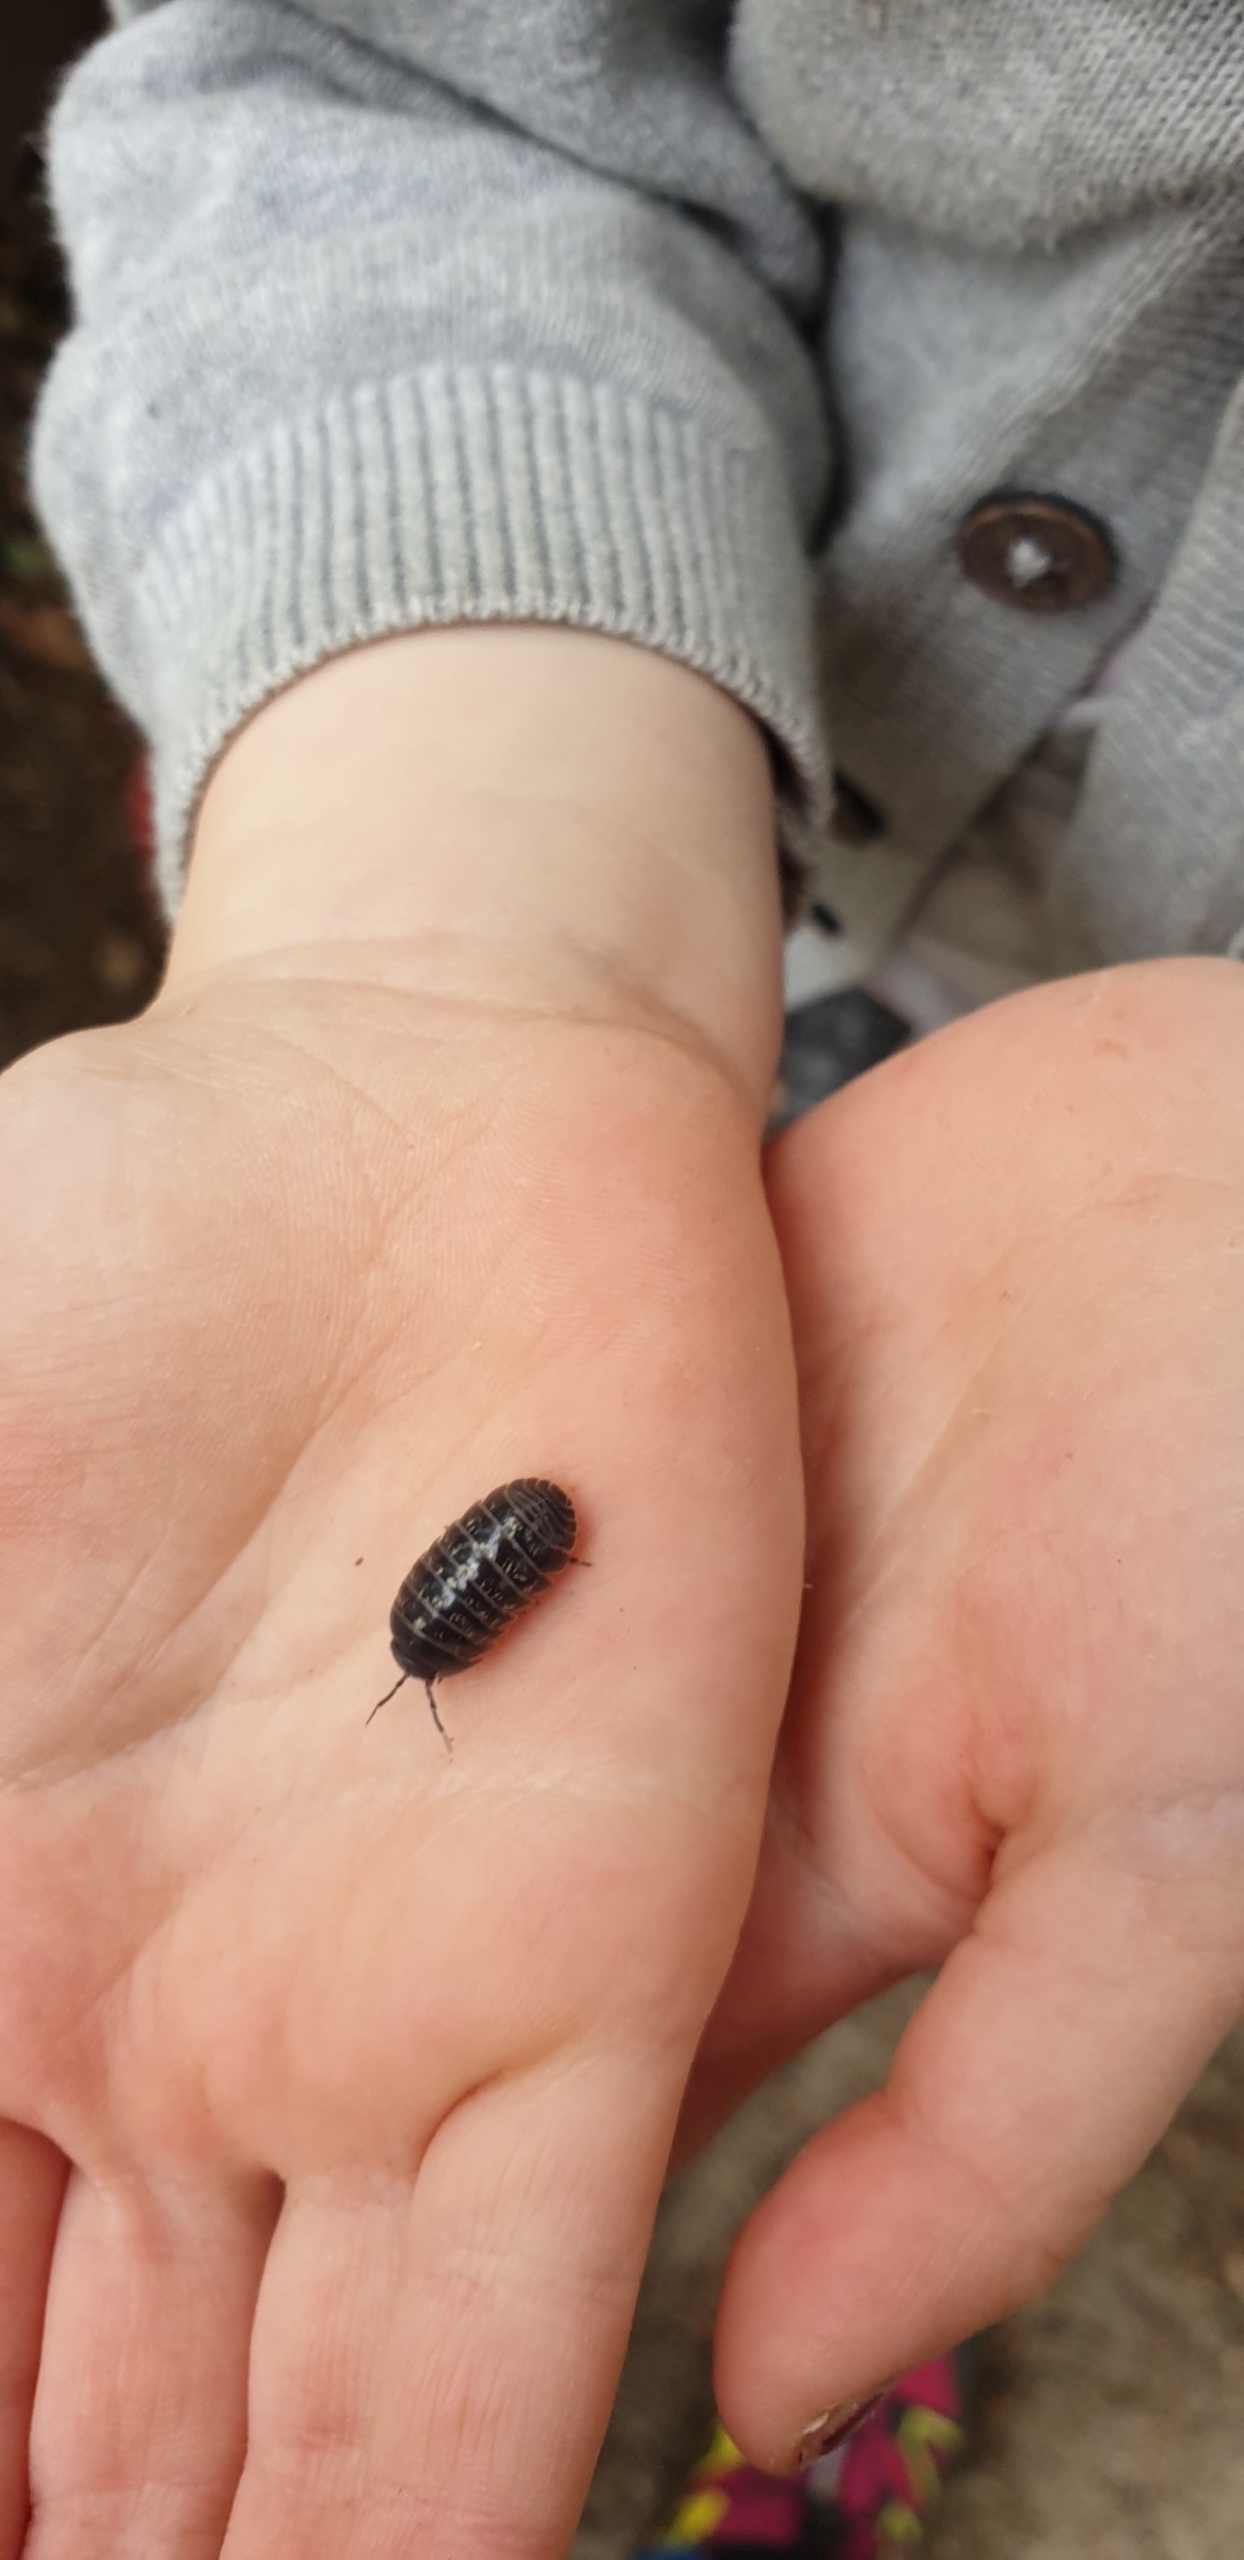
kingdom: Animalia
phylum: Arthropoda
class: Malacostraca
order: Isopoda
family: Armadillidiidae
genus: Armadillidium
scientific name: Armadillidium vulgare
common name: Almindelig kuglebænkebider
